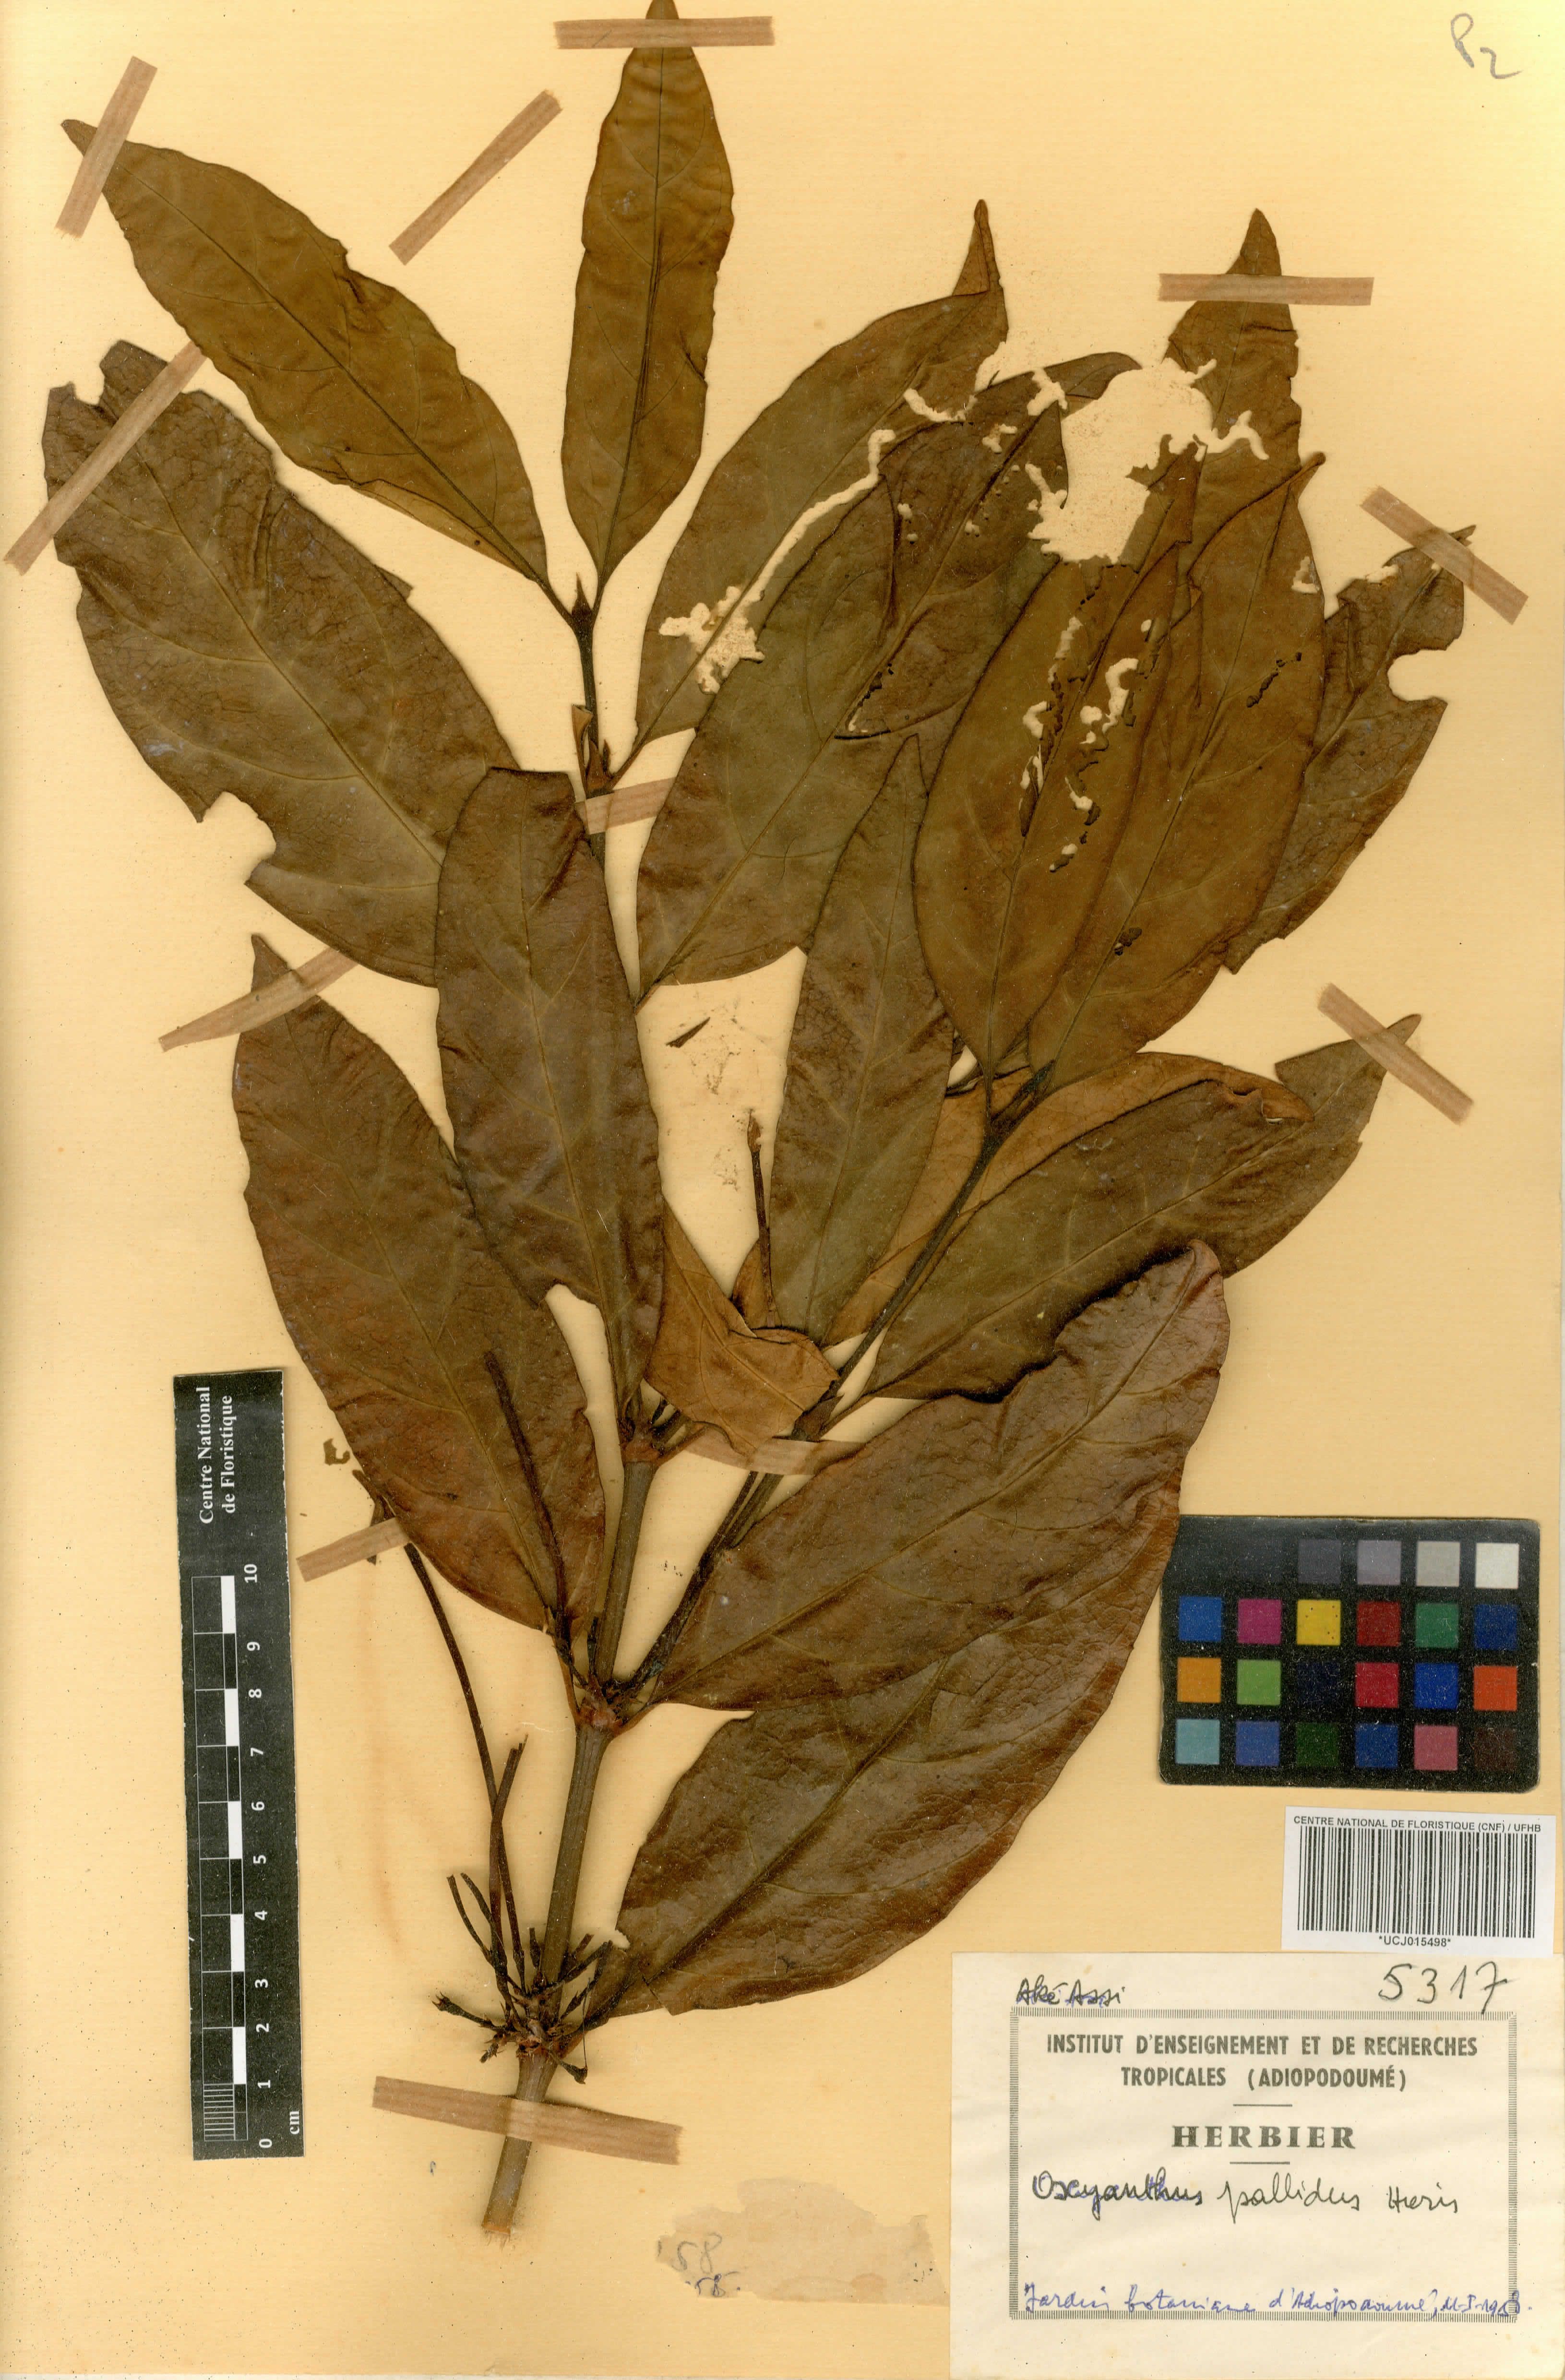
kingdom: Plantae
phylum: Tracheophyta
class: Magnoliopsida
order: Gentianales
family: Rubiaceae
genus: Oxyanthus
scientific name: Oxyanthus pallidus
